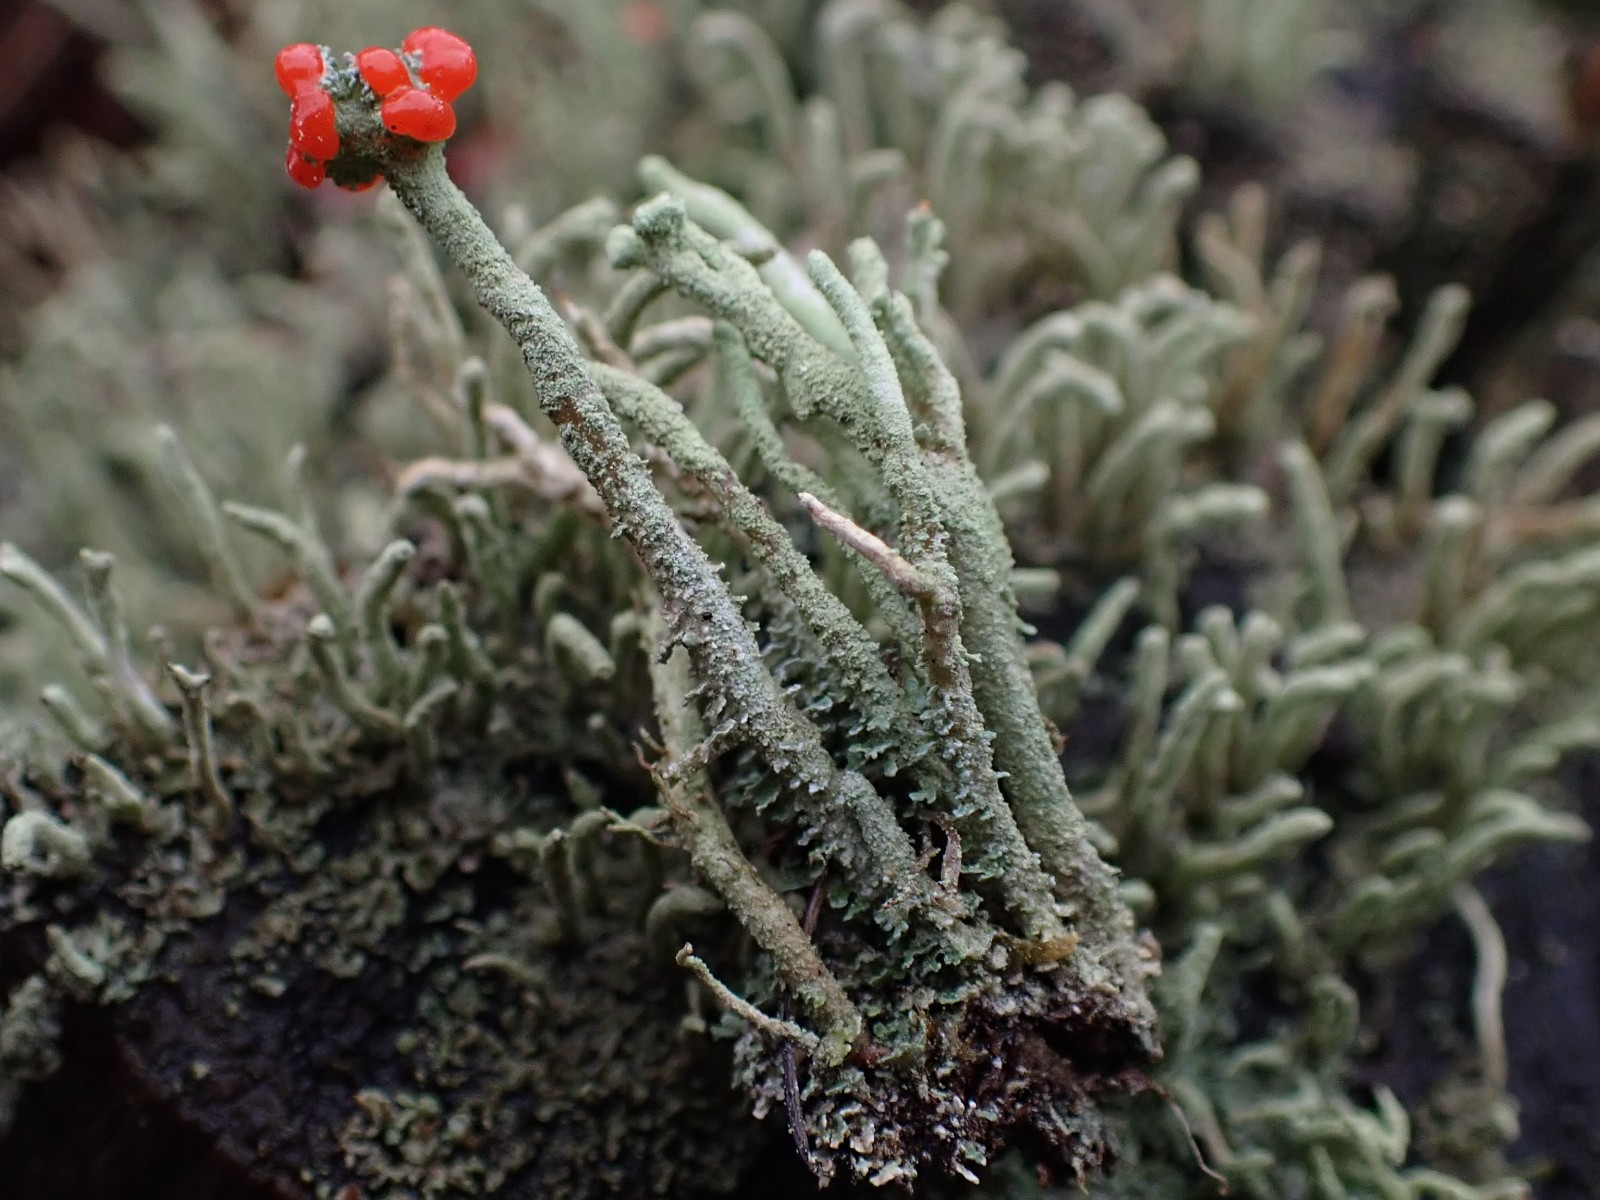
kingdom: Fungi
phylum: Ascomycota
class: Lecanoromycetes
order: Lecanorales
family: Cladoniaceae
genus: Cladonia
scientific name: Cladonia floerkeana
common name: lakrød bægerlav
